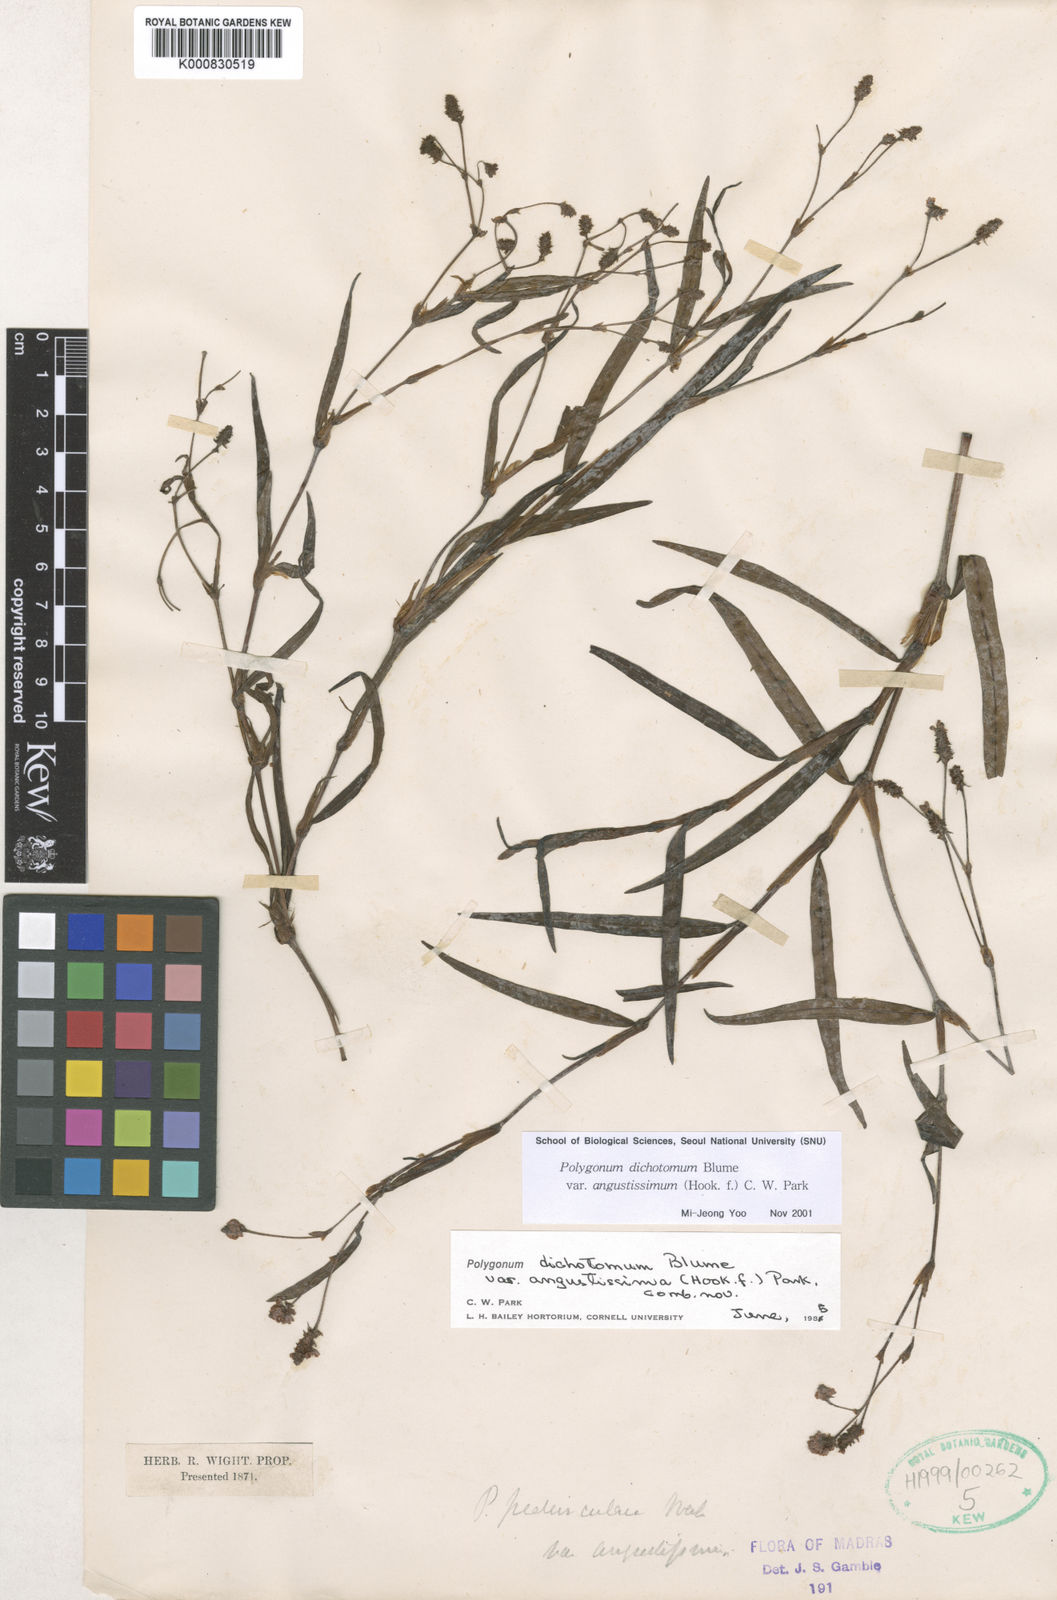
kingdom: Plantae
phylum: Tracheophyta
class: Magnoliopsida
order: Caryophyllales
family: Polygonaceae
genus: Persicaria
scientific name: Persicaria dichotoma
